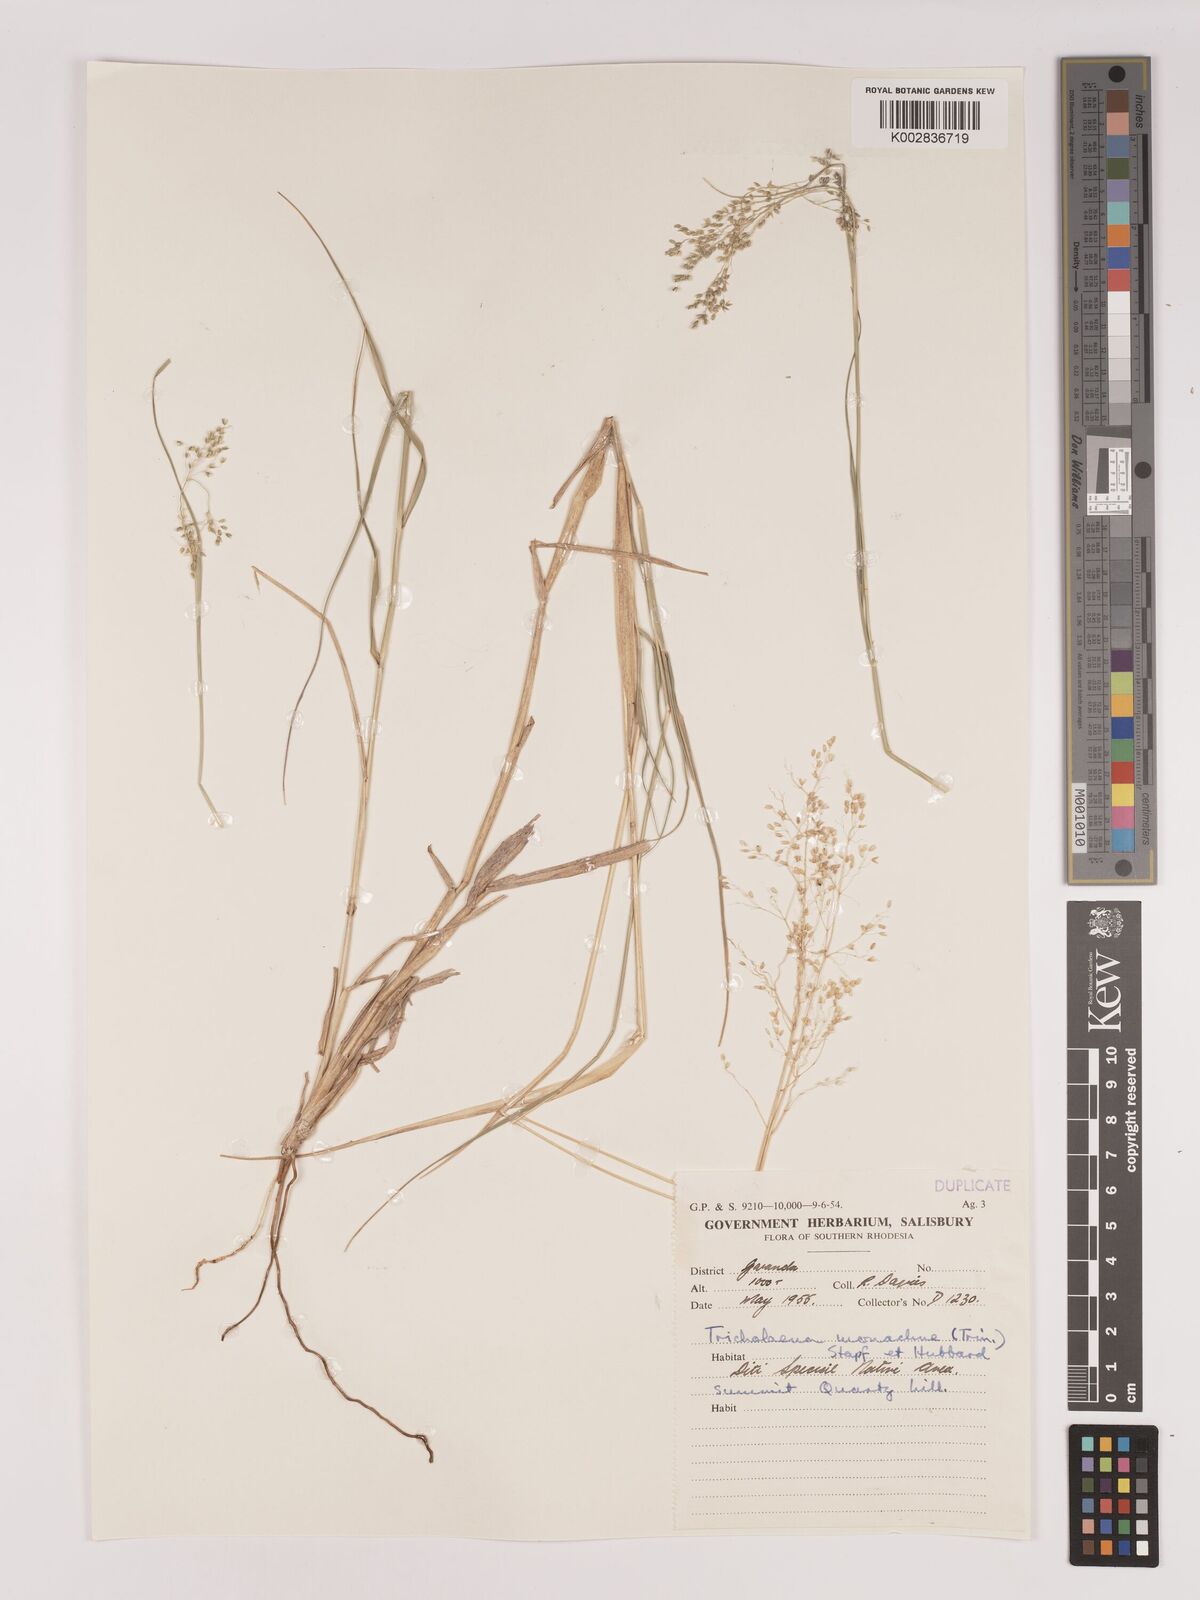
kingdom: Plantae
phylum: Tracheophyta
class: Liliopsida
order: Poales
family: Poaceae
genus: Tricholaena
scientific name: Tricholaena monachne
